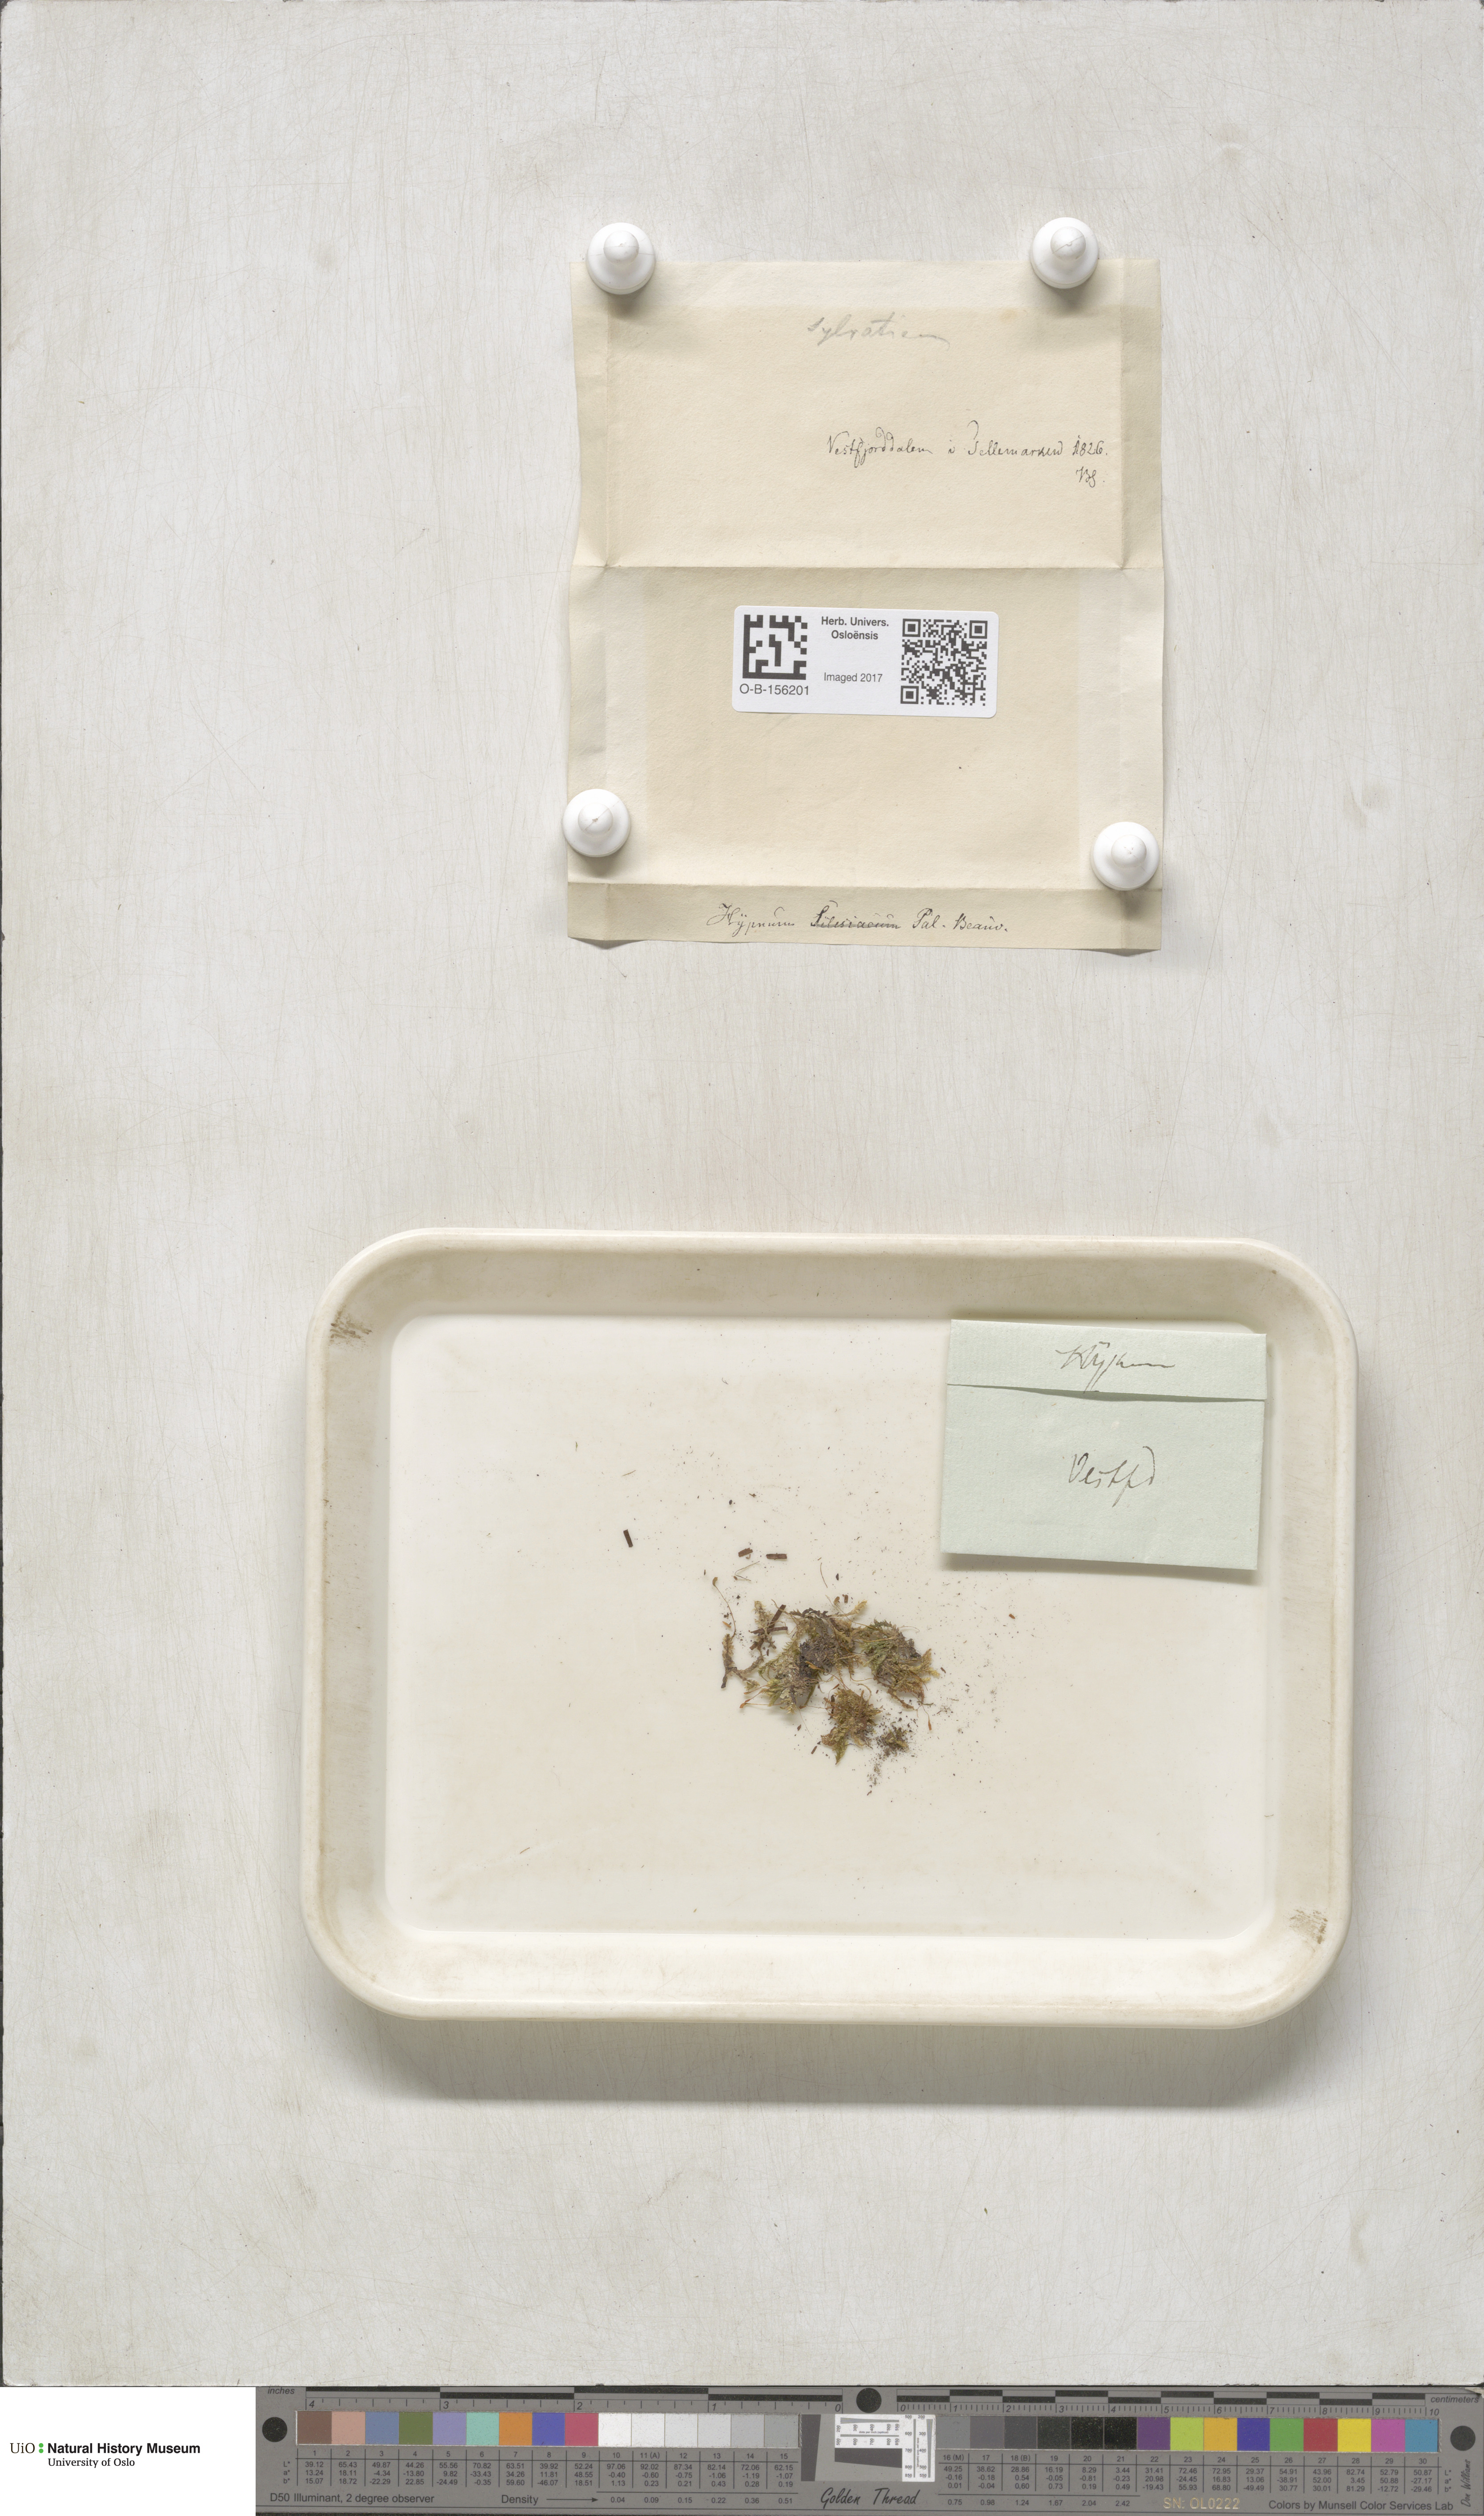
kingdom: Plantae
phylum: Bryophyta
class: Bryopsida
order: Hypnales
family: Plagiotheciaceae
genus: Plagiothecium
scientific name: Plagiothecium nemorale
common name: Woodsy silk-moss
